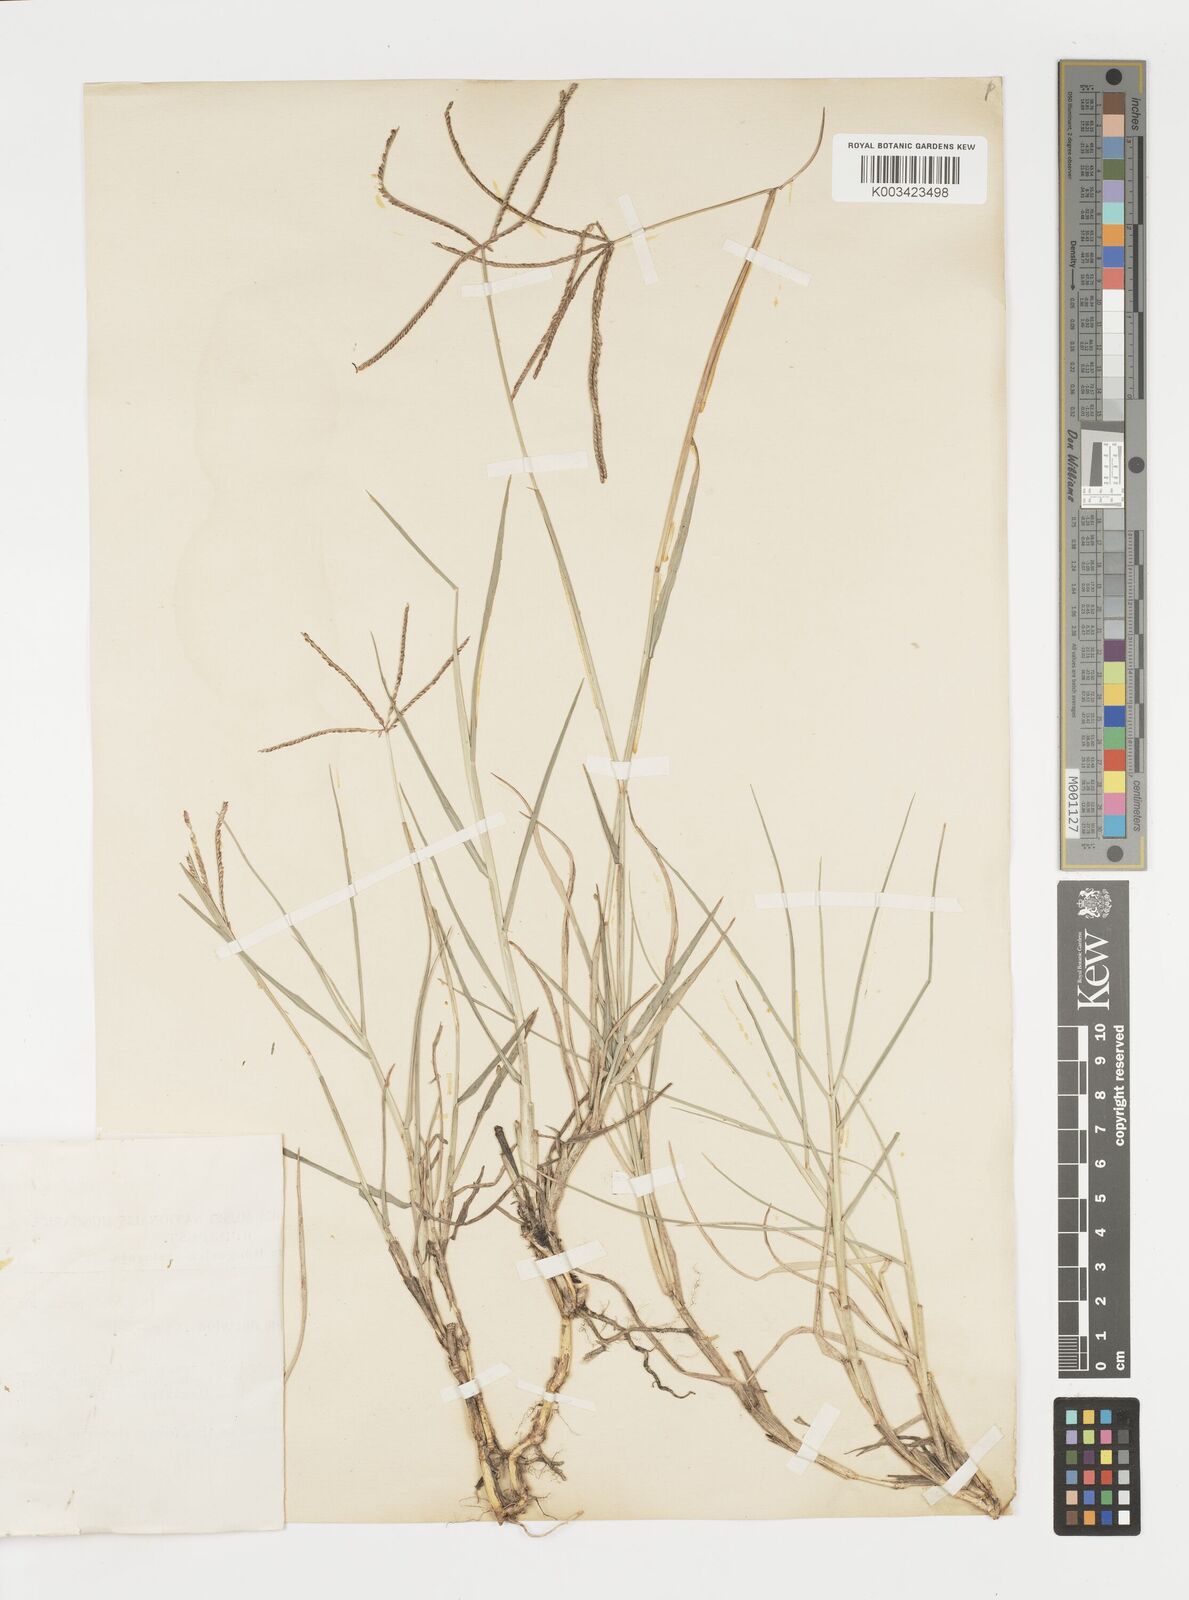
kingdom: Plantae
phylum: Tracheophyta
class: Liliopsida
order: Poales
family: Poaceae
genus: Cynodon
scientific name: Cynodon dactylon
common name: Bermuda grass
